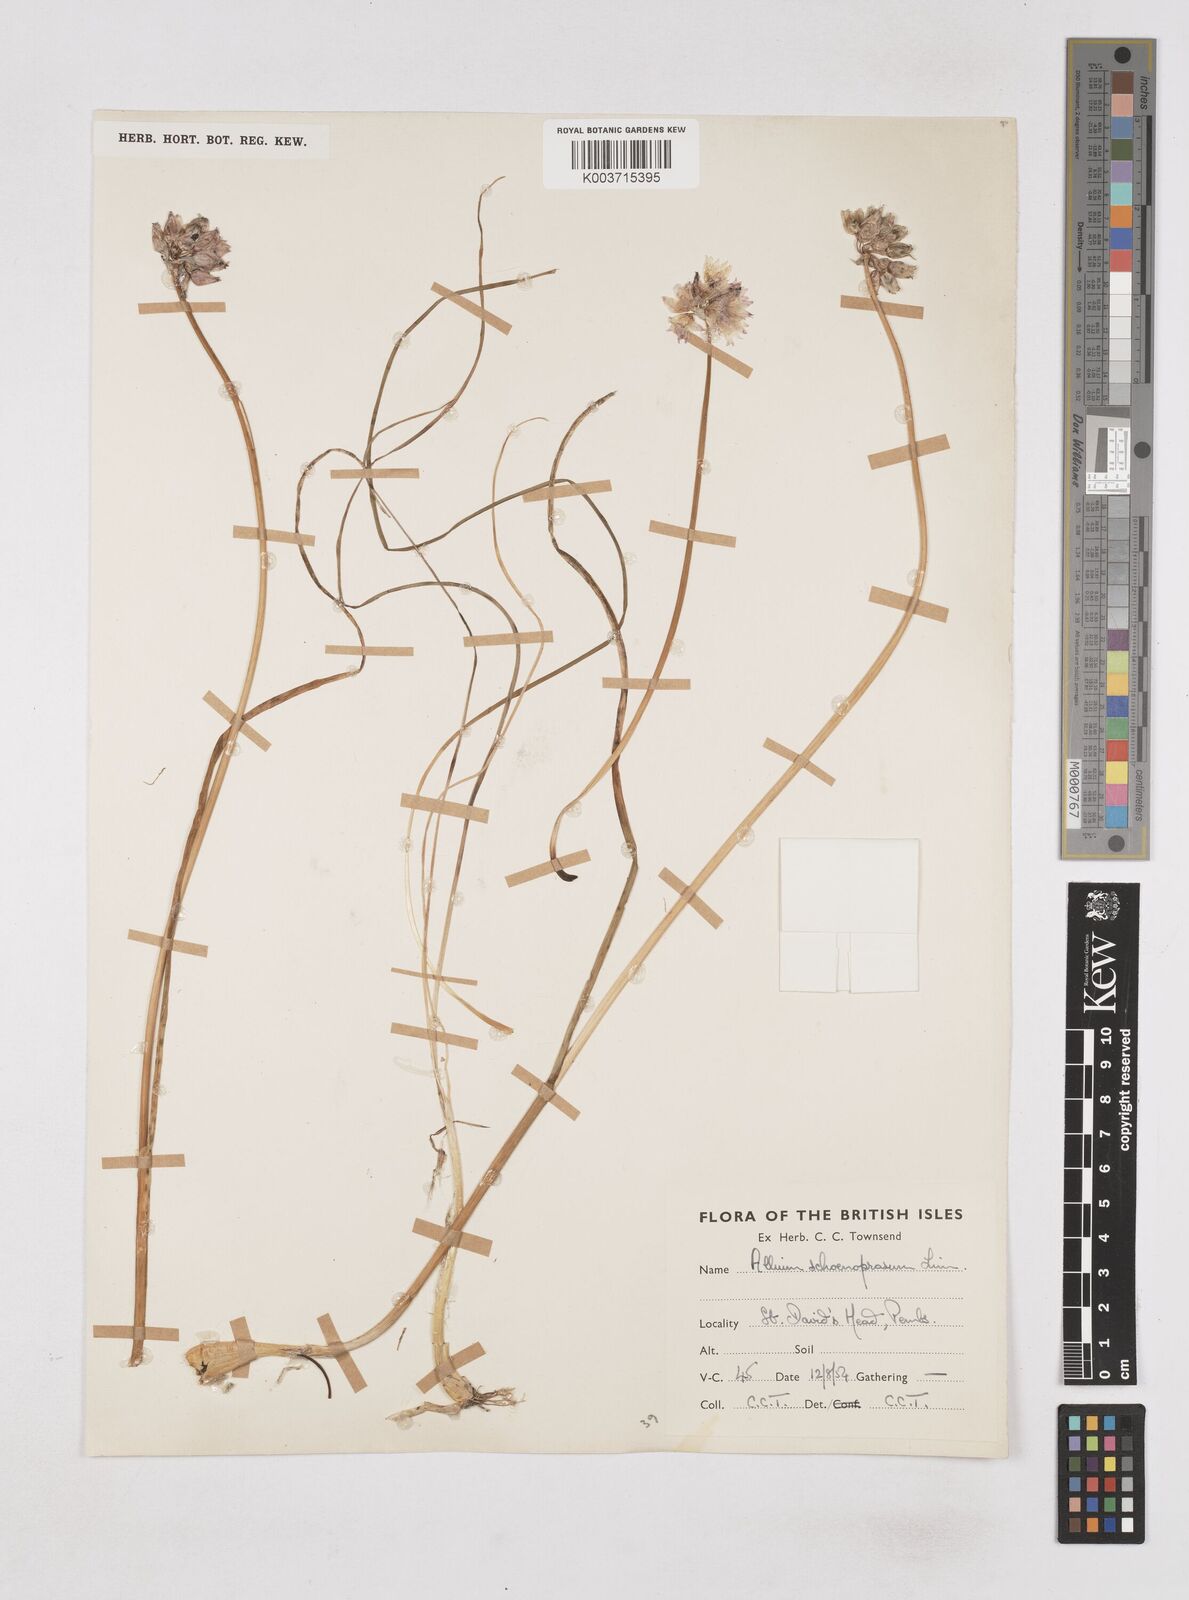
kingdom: Plantae
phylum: Tracheophyta
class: Liliopsida
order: Asparagales
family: Amaryllidaceae
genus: Allium
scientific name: Allium schoenoprasum
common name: Chives
